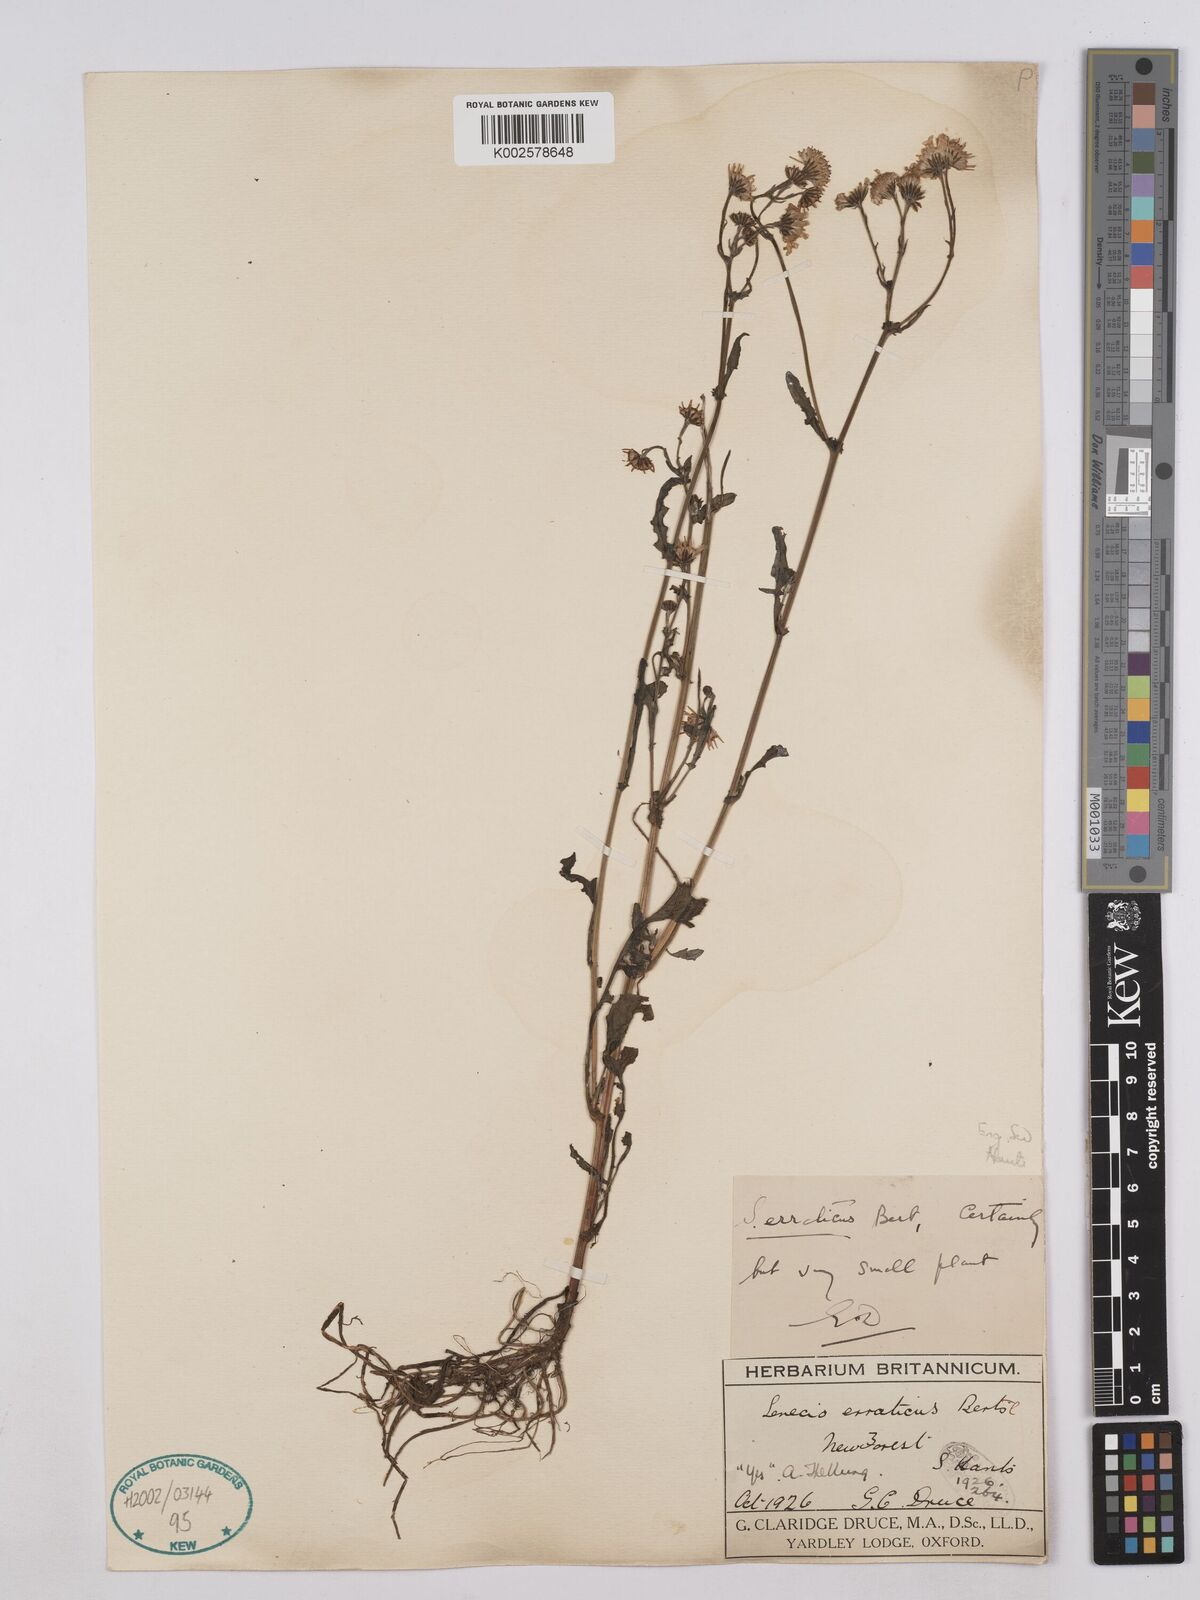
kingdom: Plantae
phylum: Tracheophyta
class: Magnoliopsida
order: Asterales
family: Asteraceae
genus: Jacobaea
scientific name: Jacobaea aquatica
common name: Water ragwort
